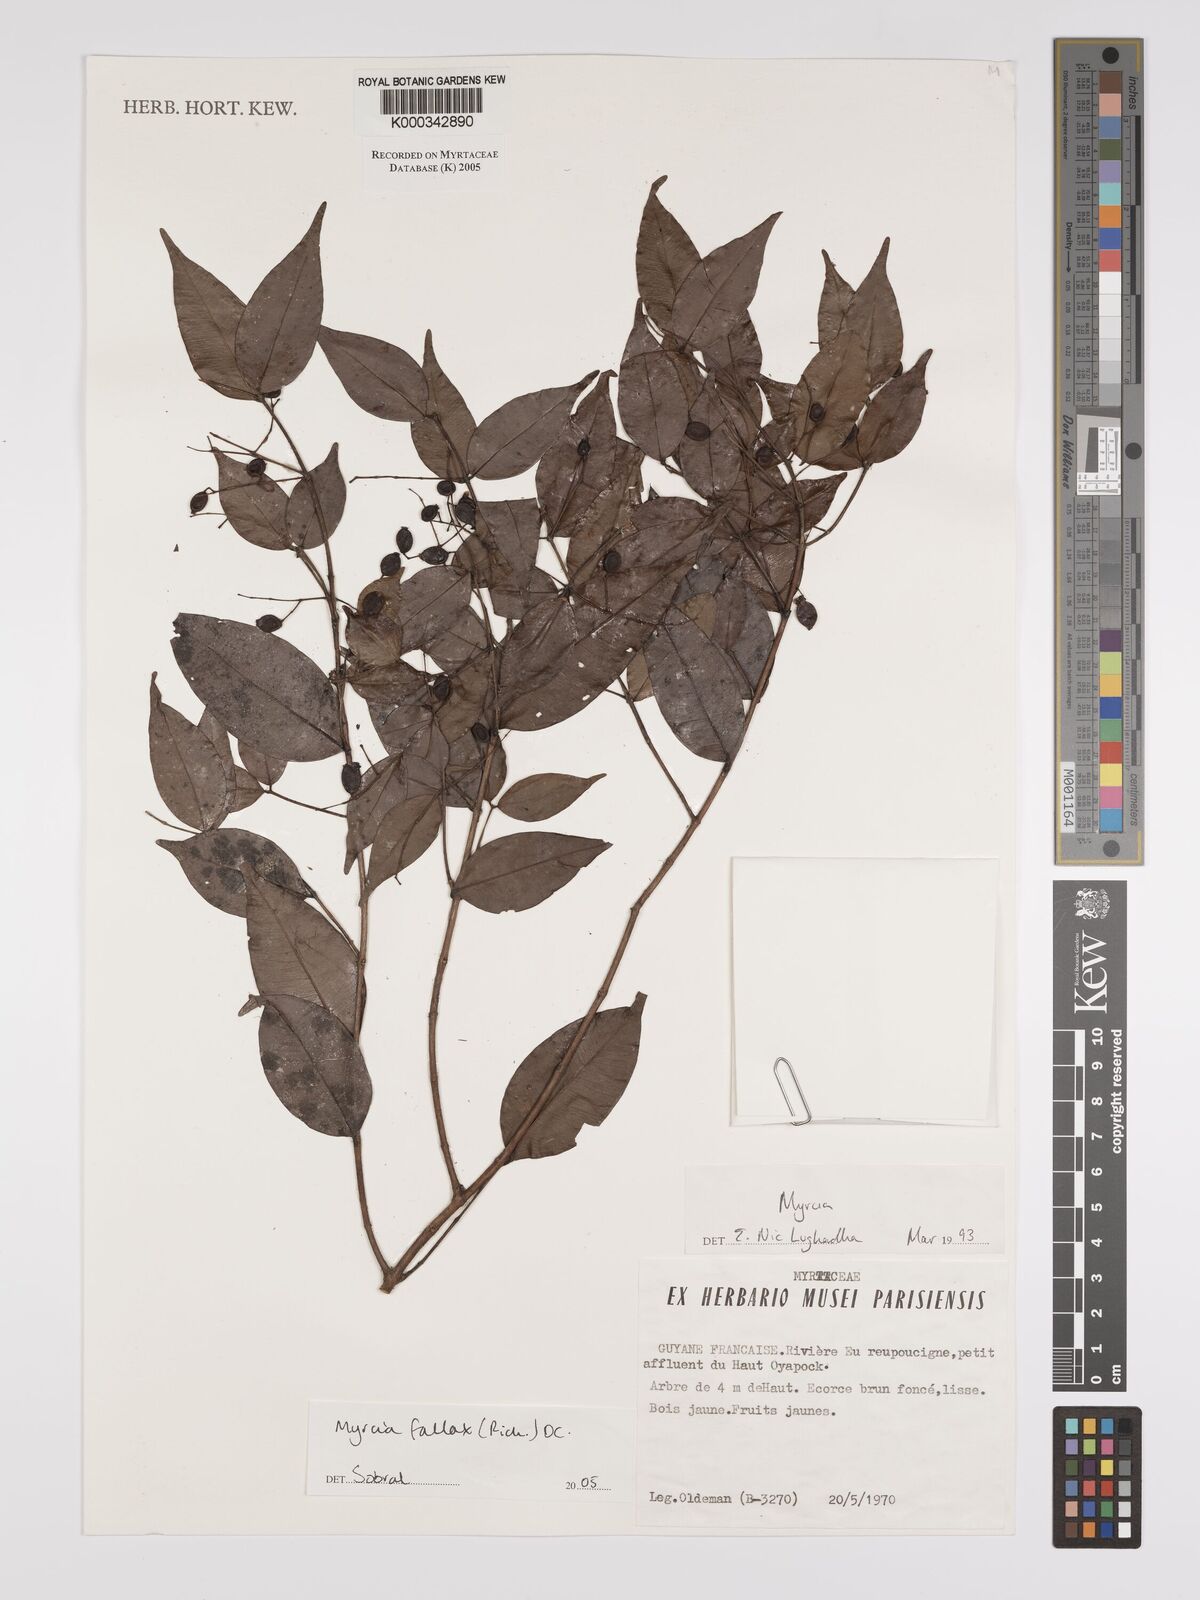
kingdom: Plantae
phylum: Tracheophyta
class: Magnoliopsida
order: Myrtales
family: Myrtaceae
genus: Myrcia
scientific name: Myrcia splendens
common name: Surinam cherry
